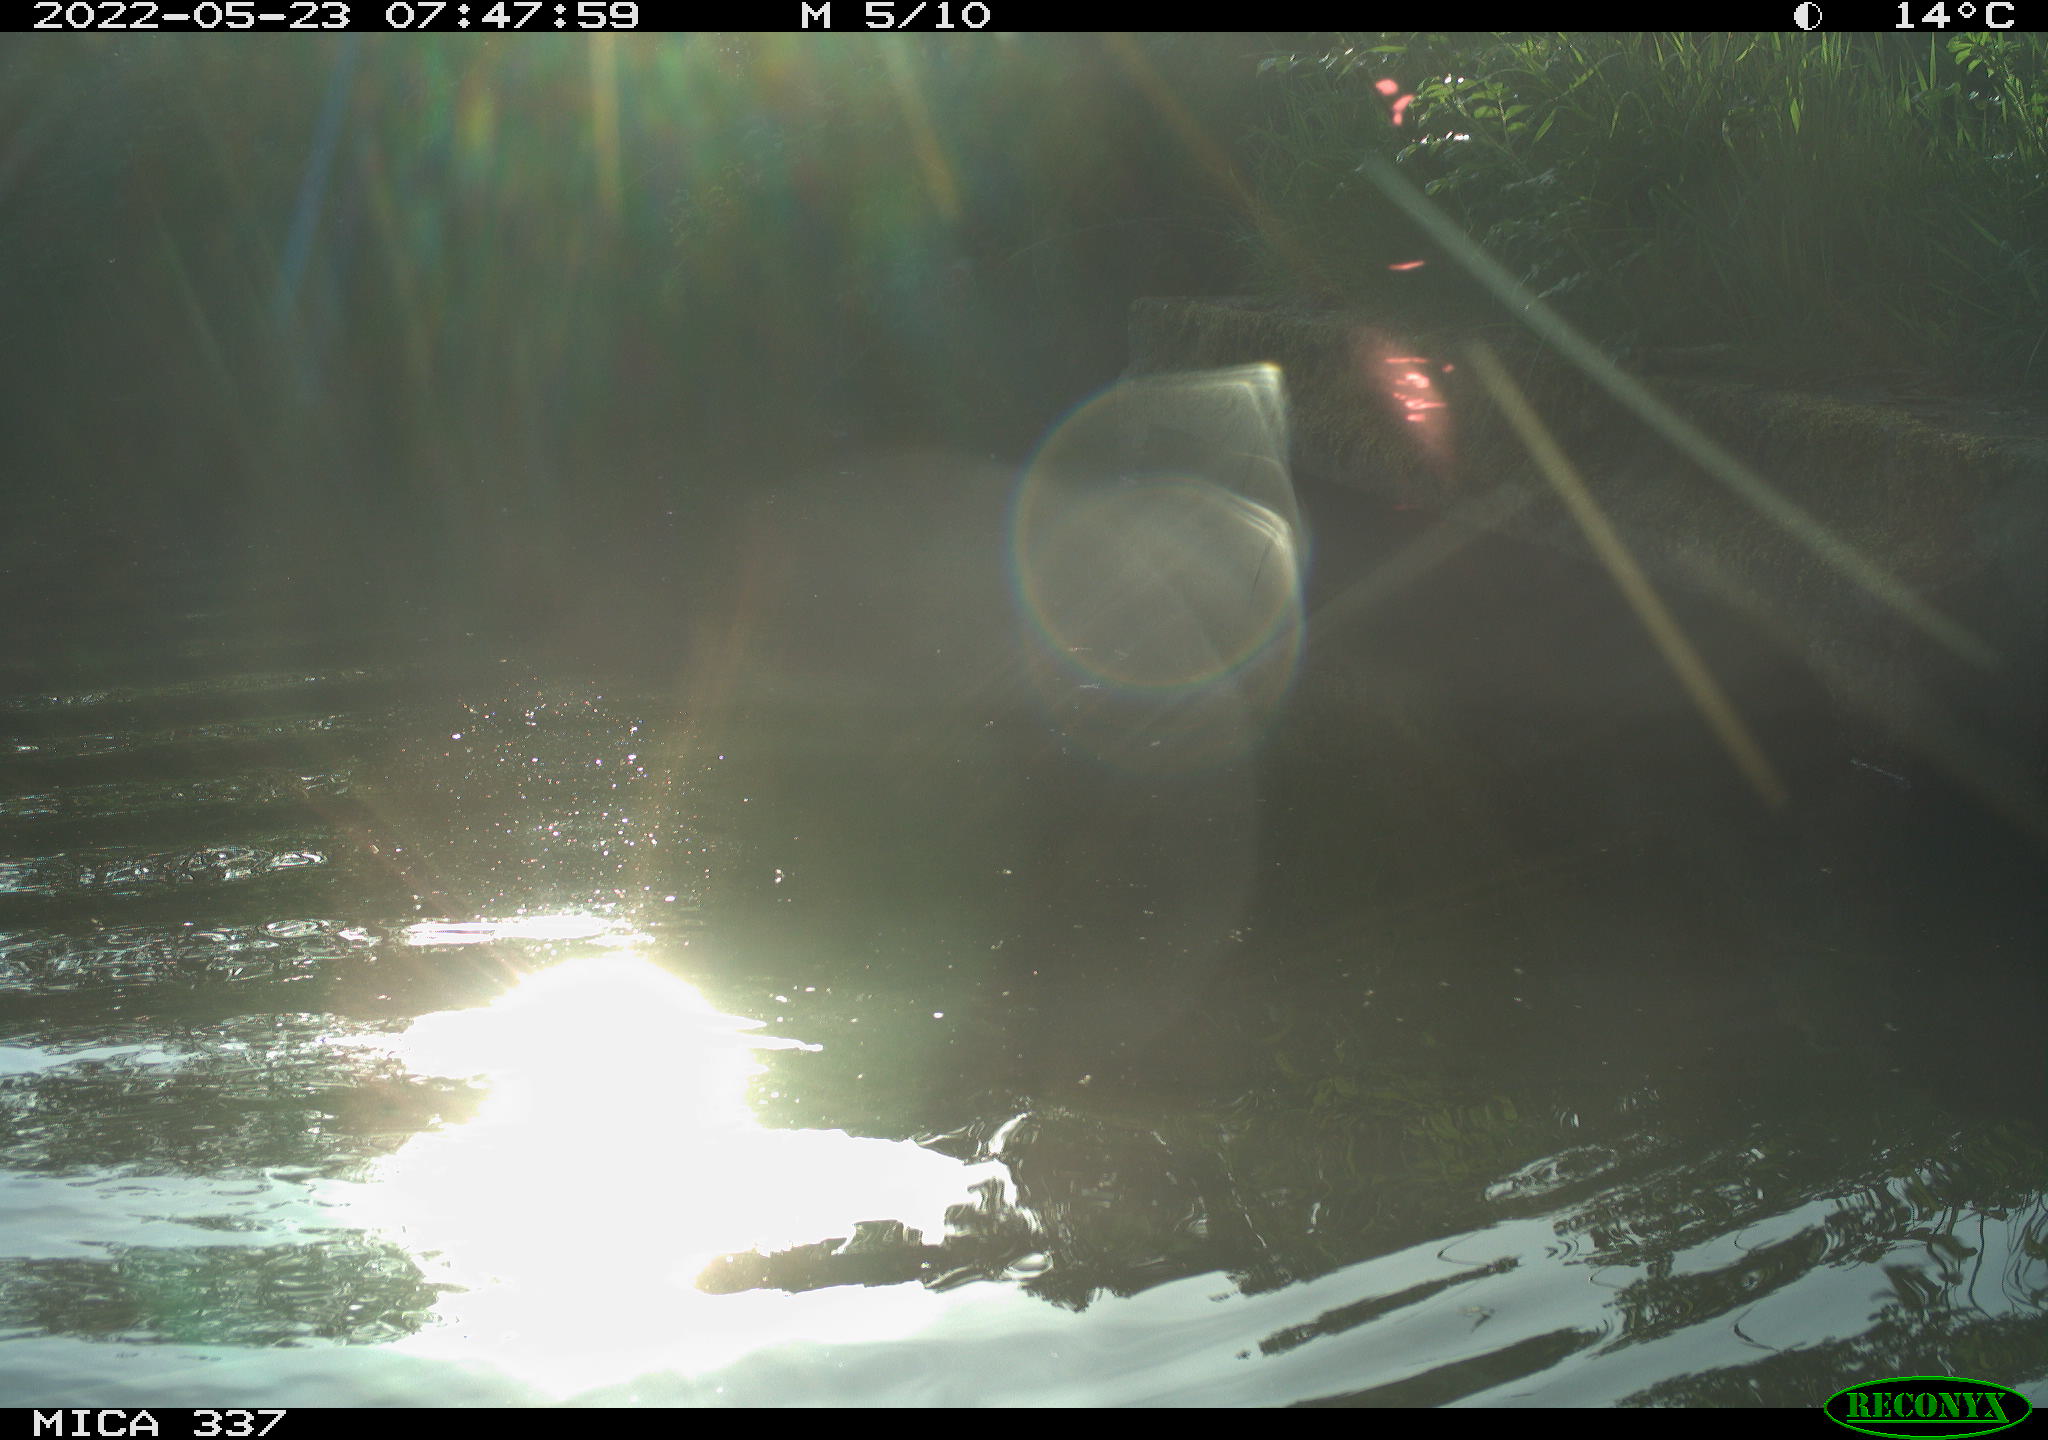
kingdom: Animalia
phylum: Chordata
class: Aves
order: Anseriformes
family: Anatidae
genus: Anas
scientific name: Anas platyrhynchos
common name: Mallard
